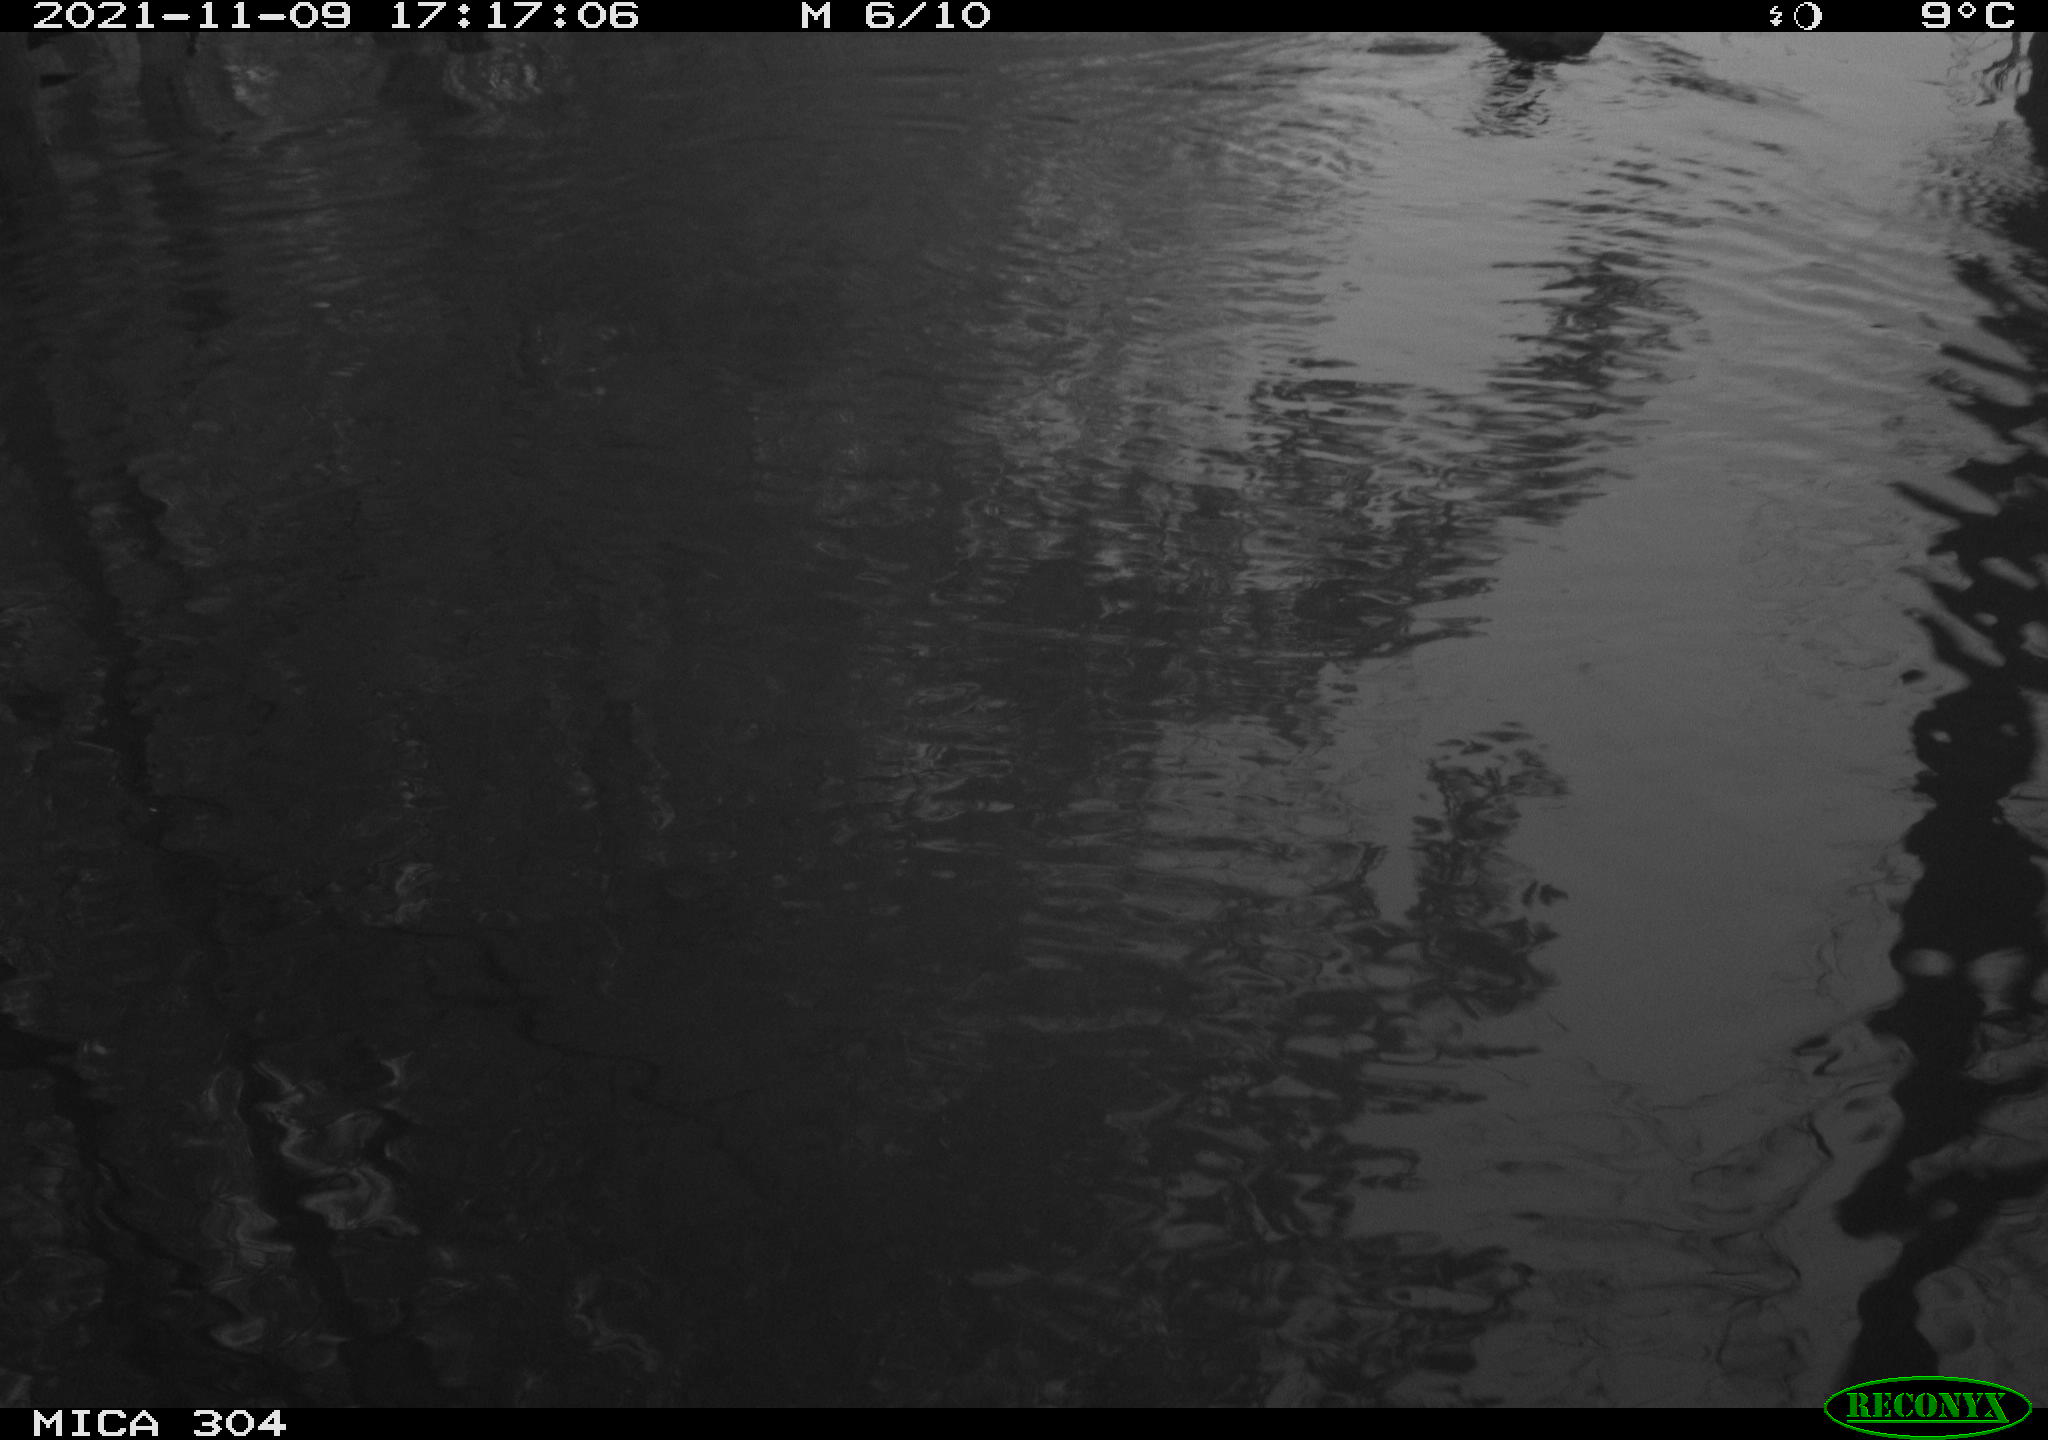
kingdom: Animalia
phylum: Chordata
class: Aves
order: Gruiformes
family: Rallidae
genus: Fulica
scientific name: Fulica atra
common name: Eurasian coot
